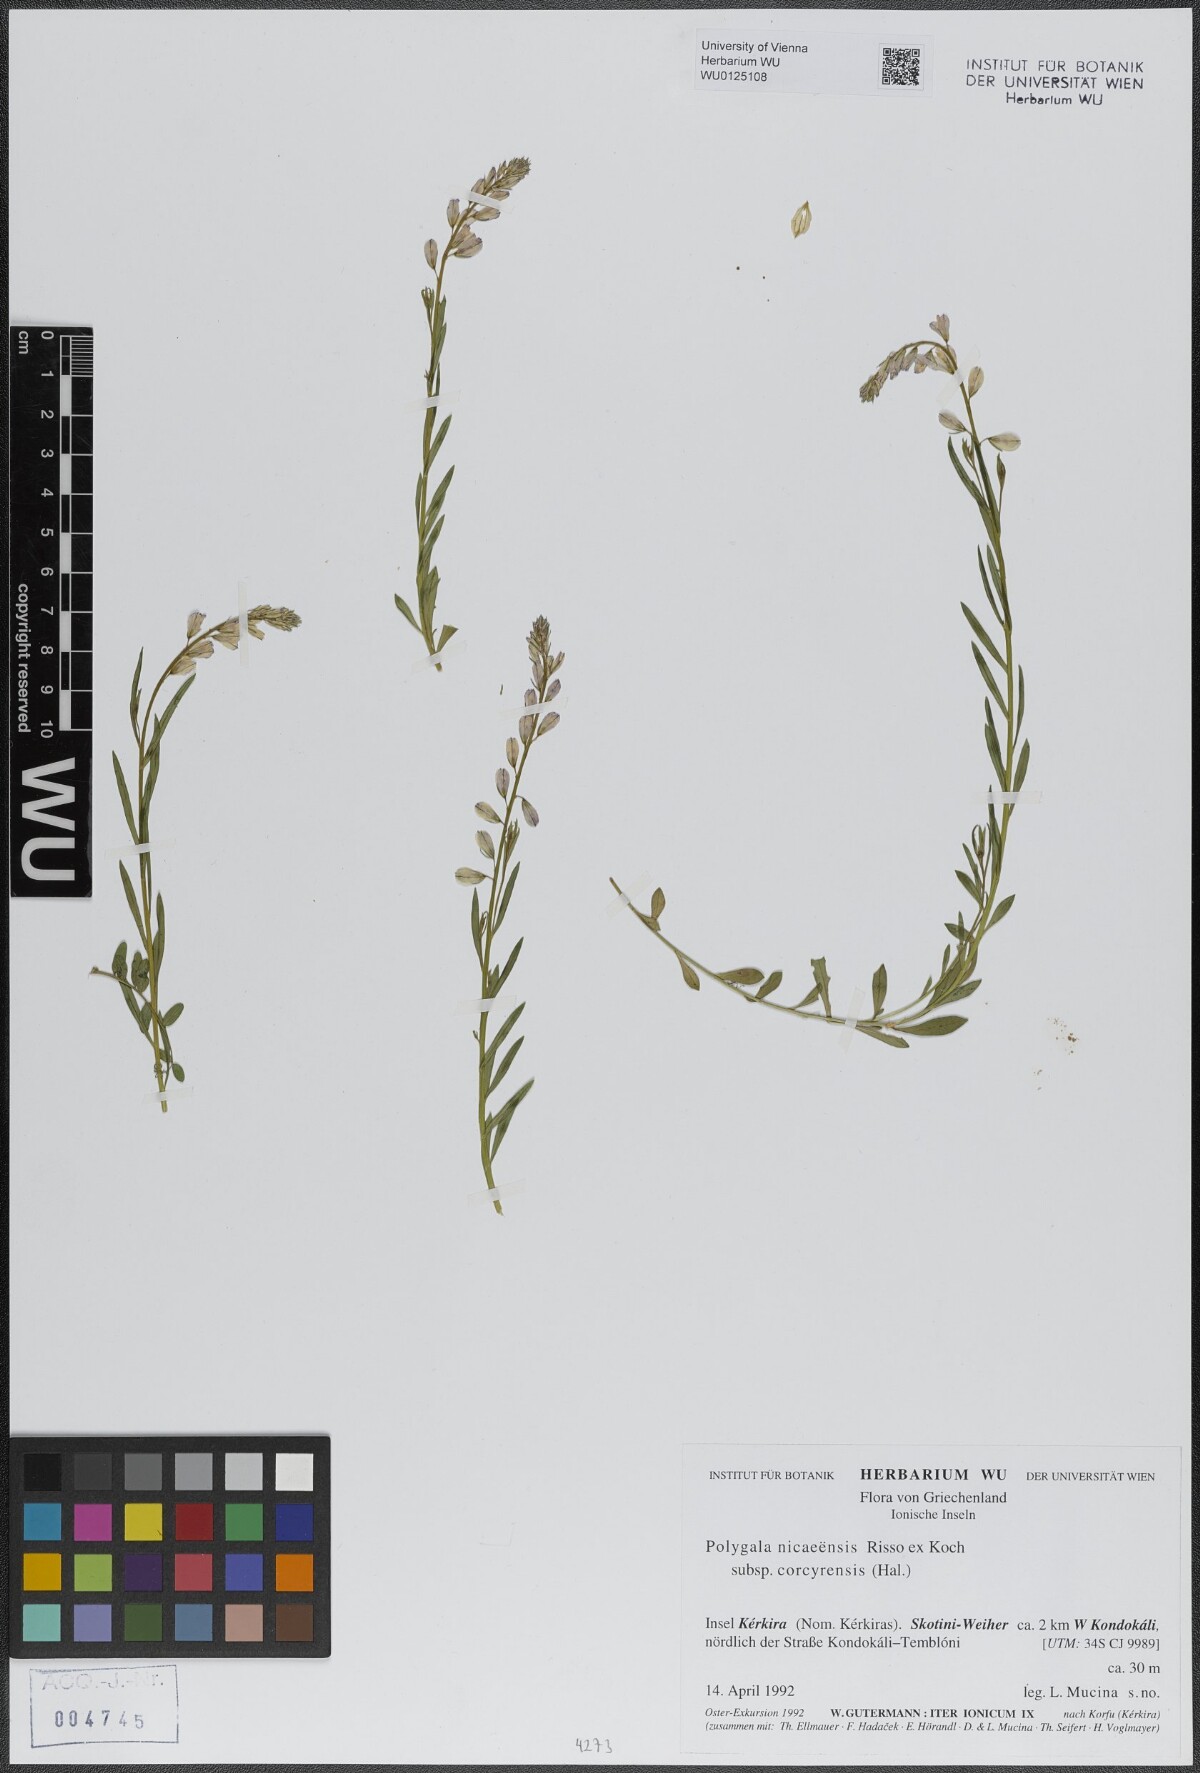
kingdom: Plantae
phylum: Tracheophyta
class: Magnoliopsida
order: Fabales
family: Polygalaceae
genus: Polygala
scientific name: Polygala nicaeensis
